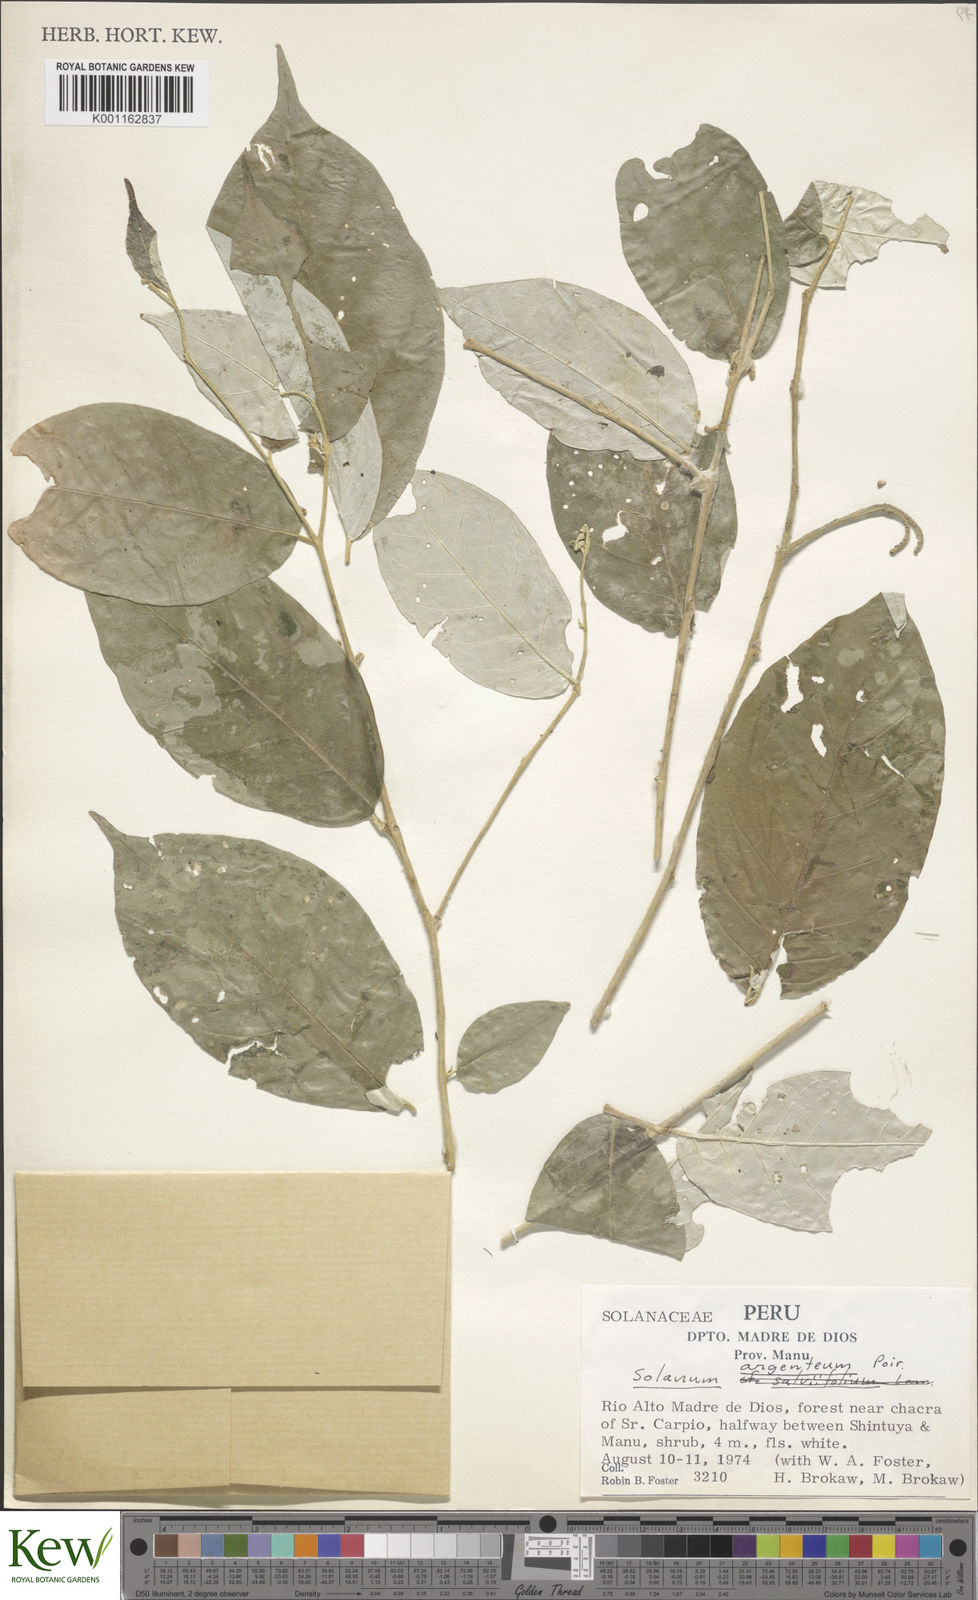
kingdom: Plantae
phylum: Tracheophyta
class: Magnoliopsida
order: Solanales
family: Solanaceae
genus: Solanum
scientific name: Solanum swartzianum
